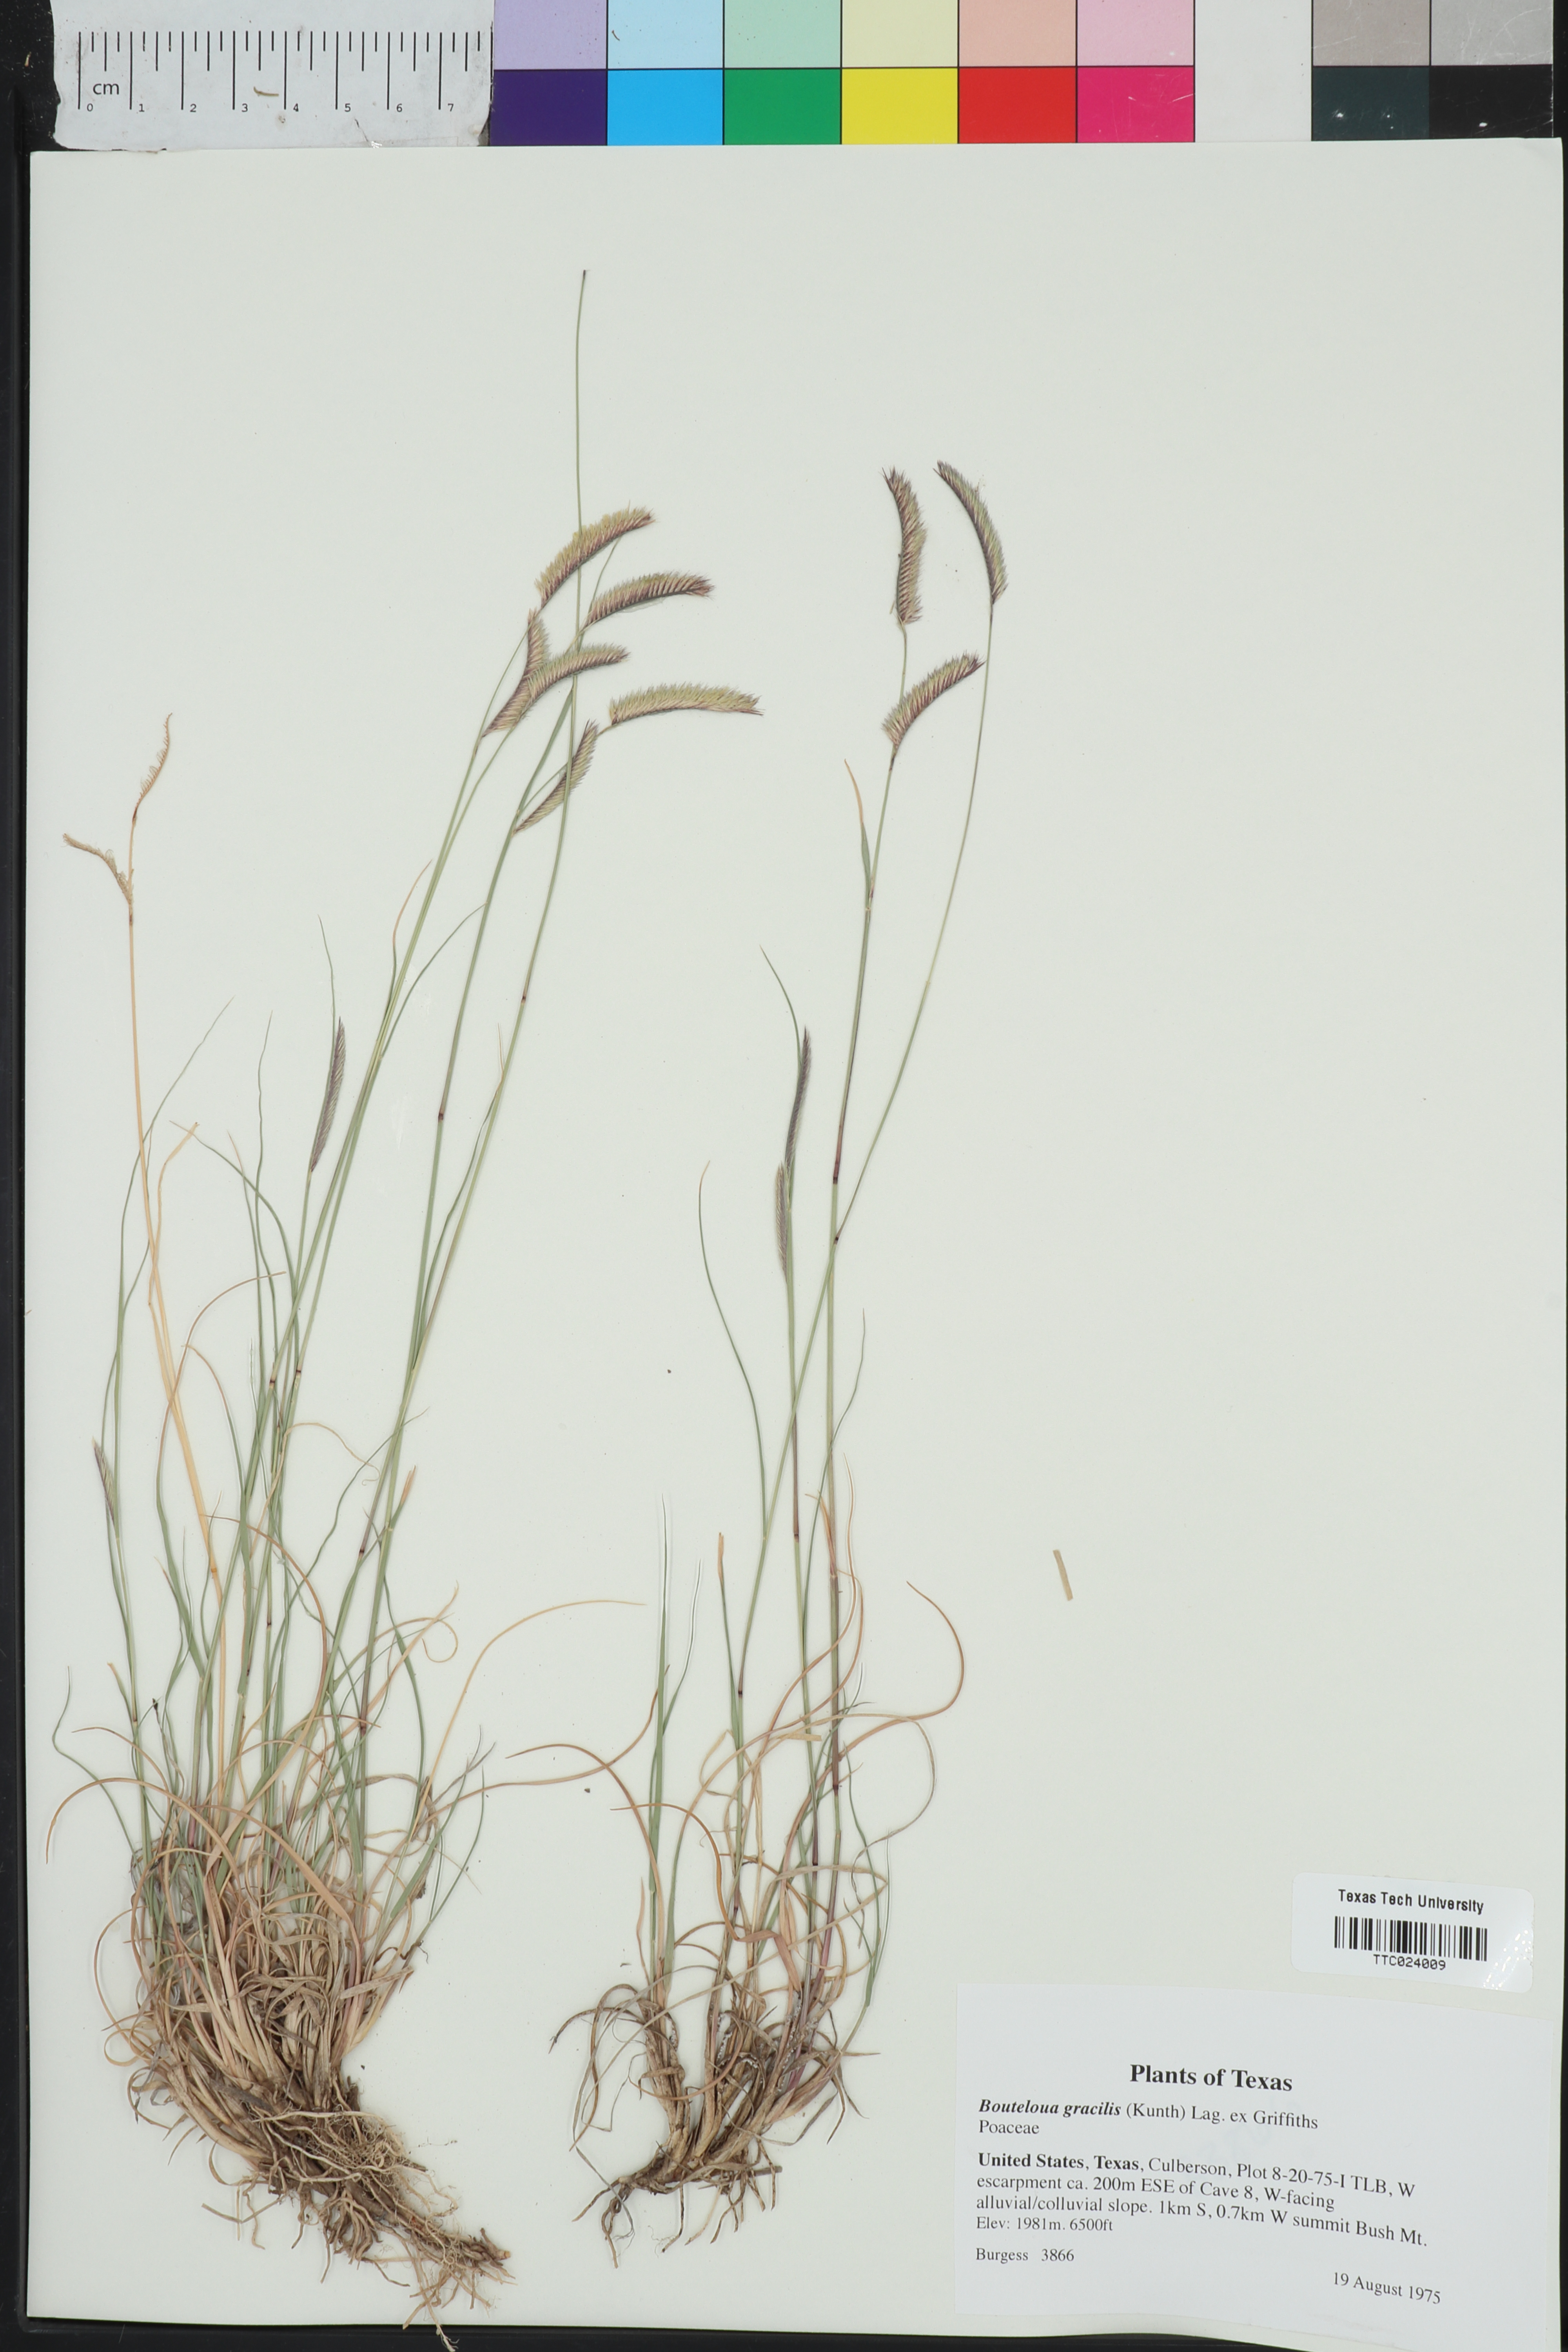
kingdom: Plantae
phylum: Tracheophyta
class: Liliopsida
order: Poales
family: Poaceae
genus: Bouteloua
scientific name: Bouteloua gracilis
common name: Blue grama
